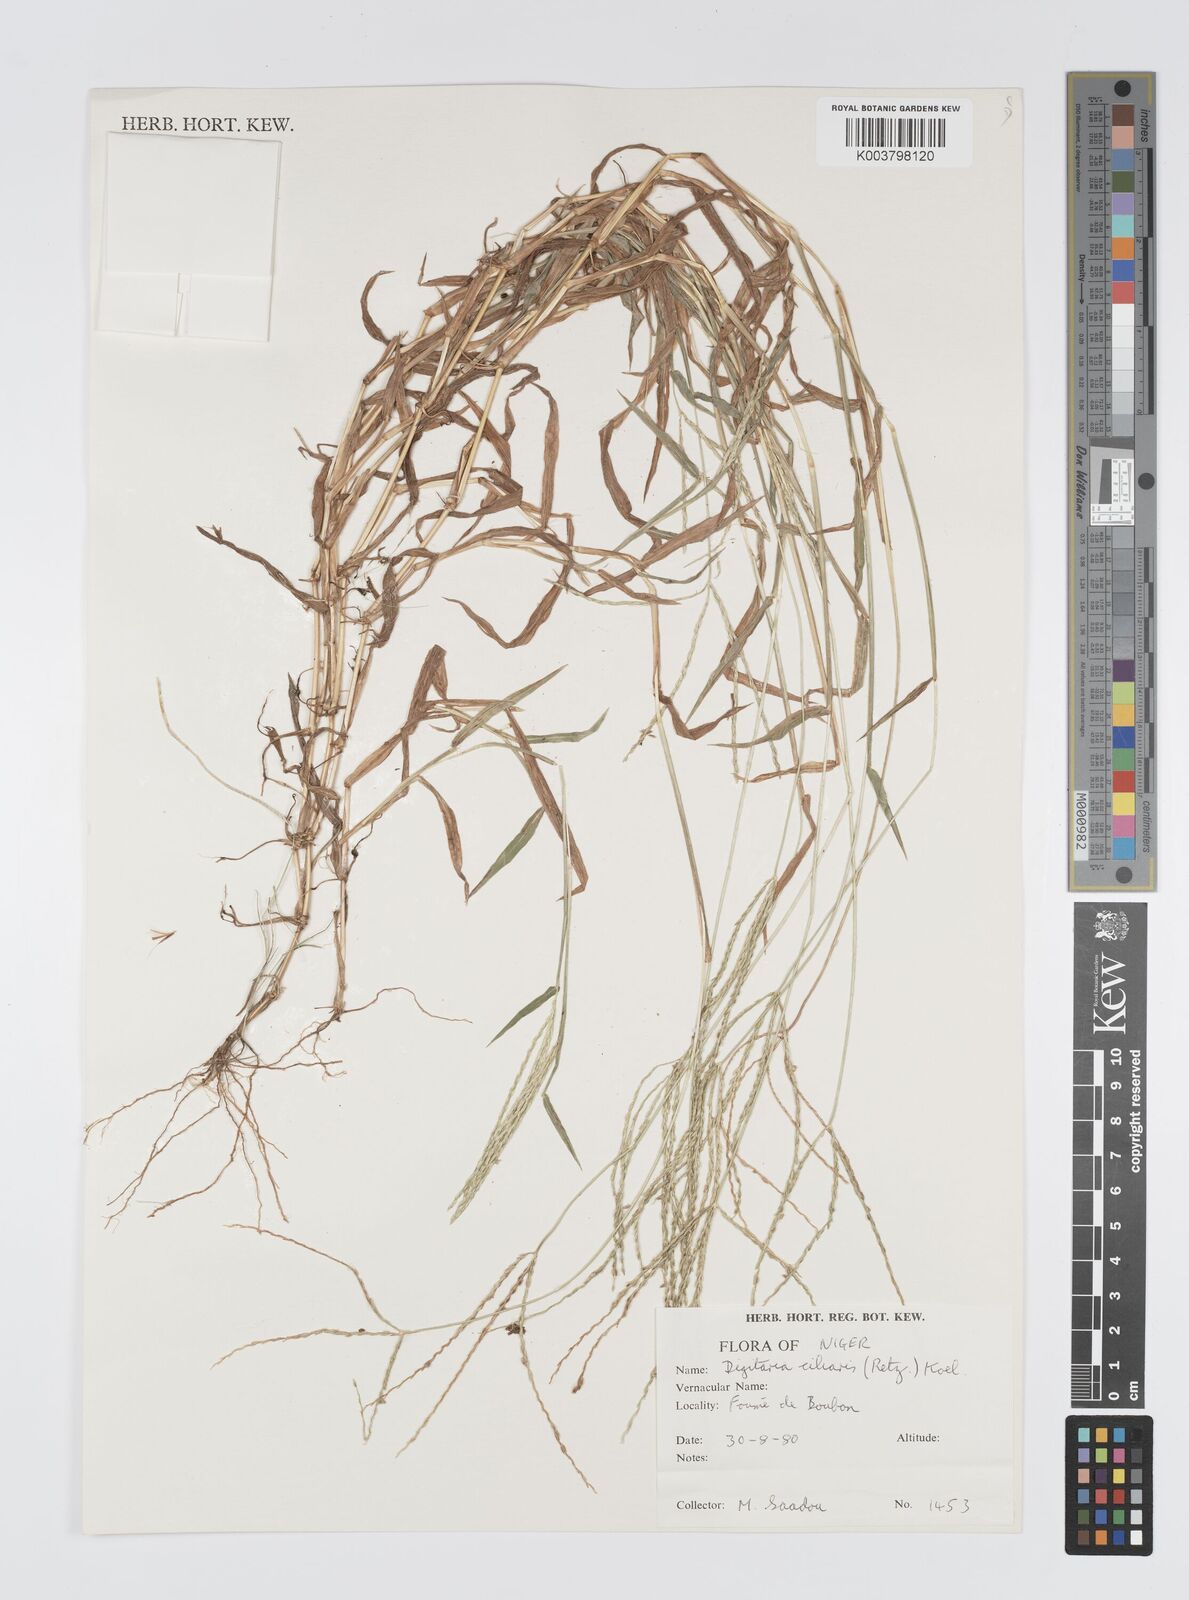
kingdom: Plantae
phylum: Tracheophyta
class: Liliopsida
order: Poales
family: Poaceae
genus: Digitaria
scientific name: Digitaria
